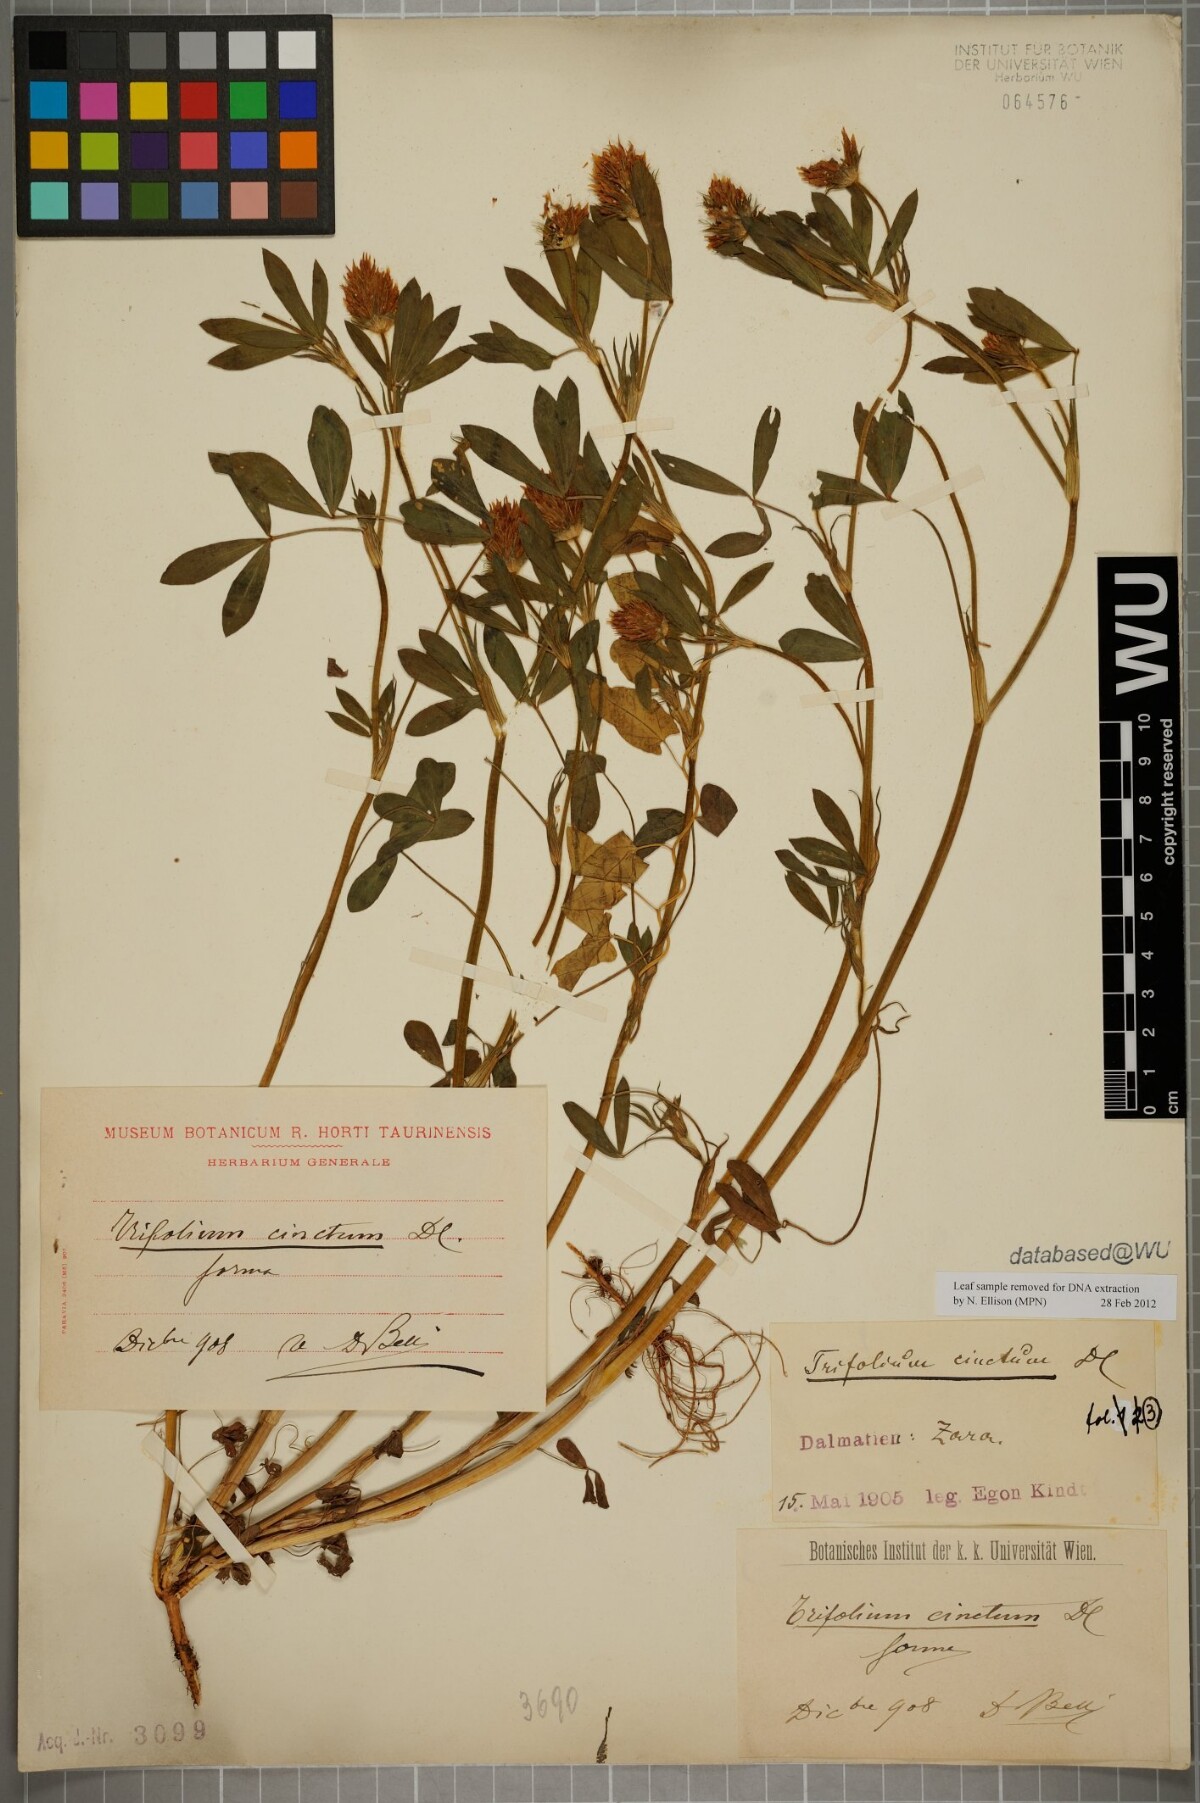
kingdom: Plantae
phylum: Tracheophyta
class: Magnoliopsida
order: Fabales
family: Fabaceae
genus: Trifolium
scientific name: Trifolium squamosum
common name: Sea clover
